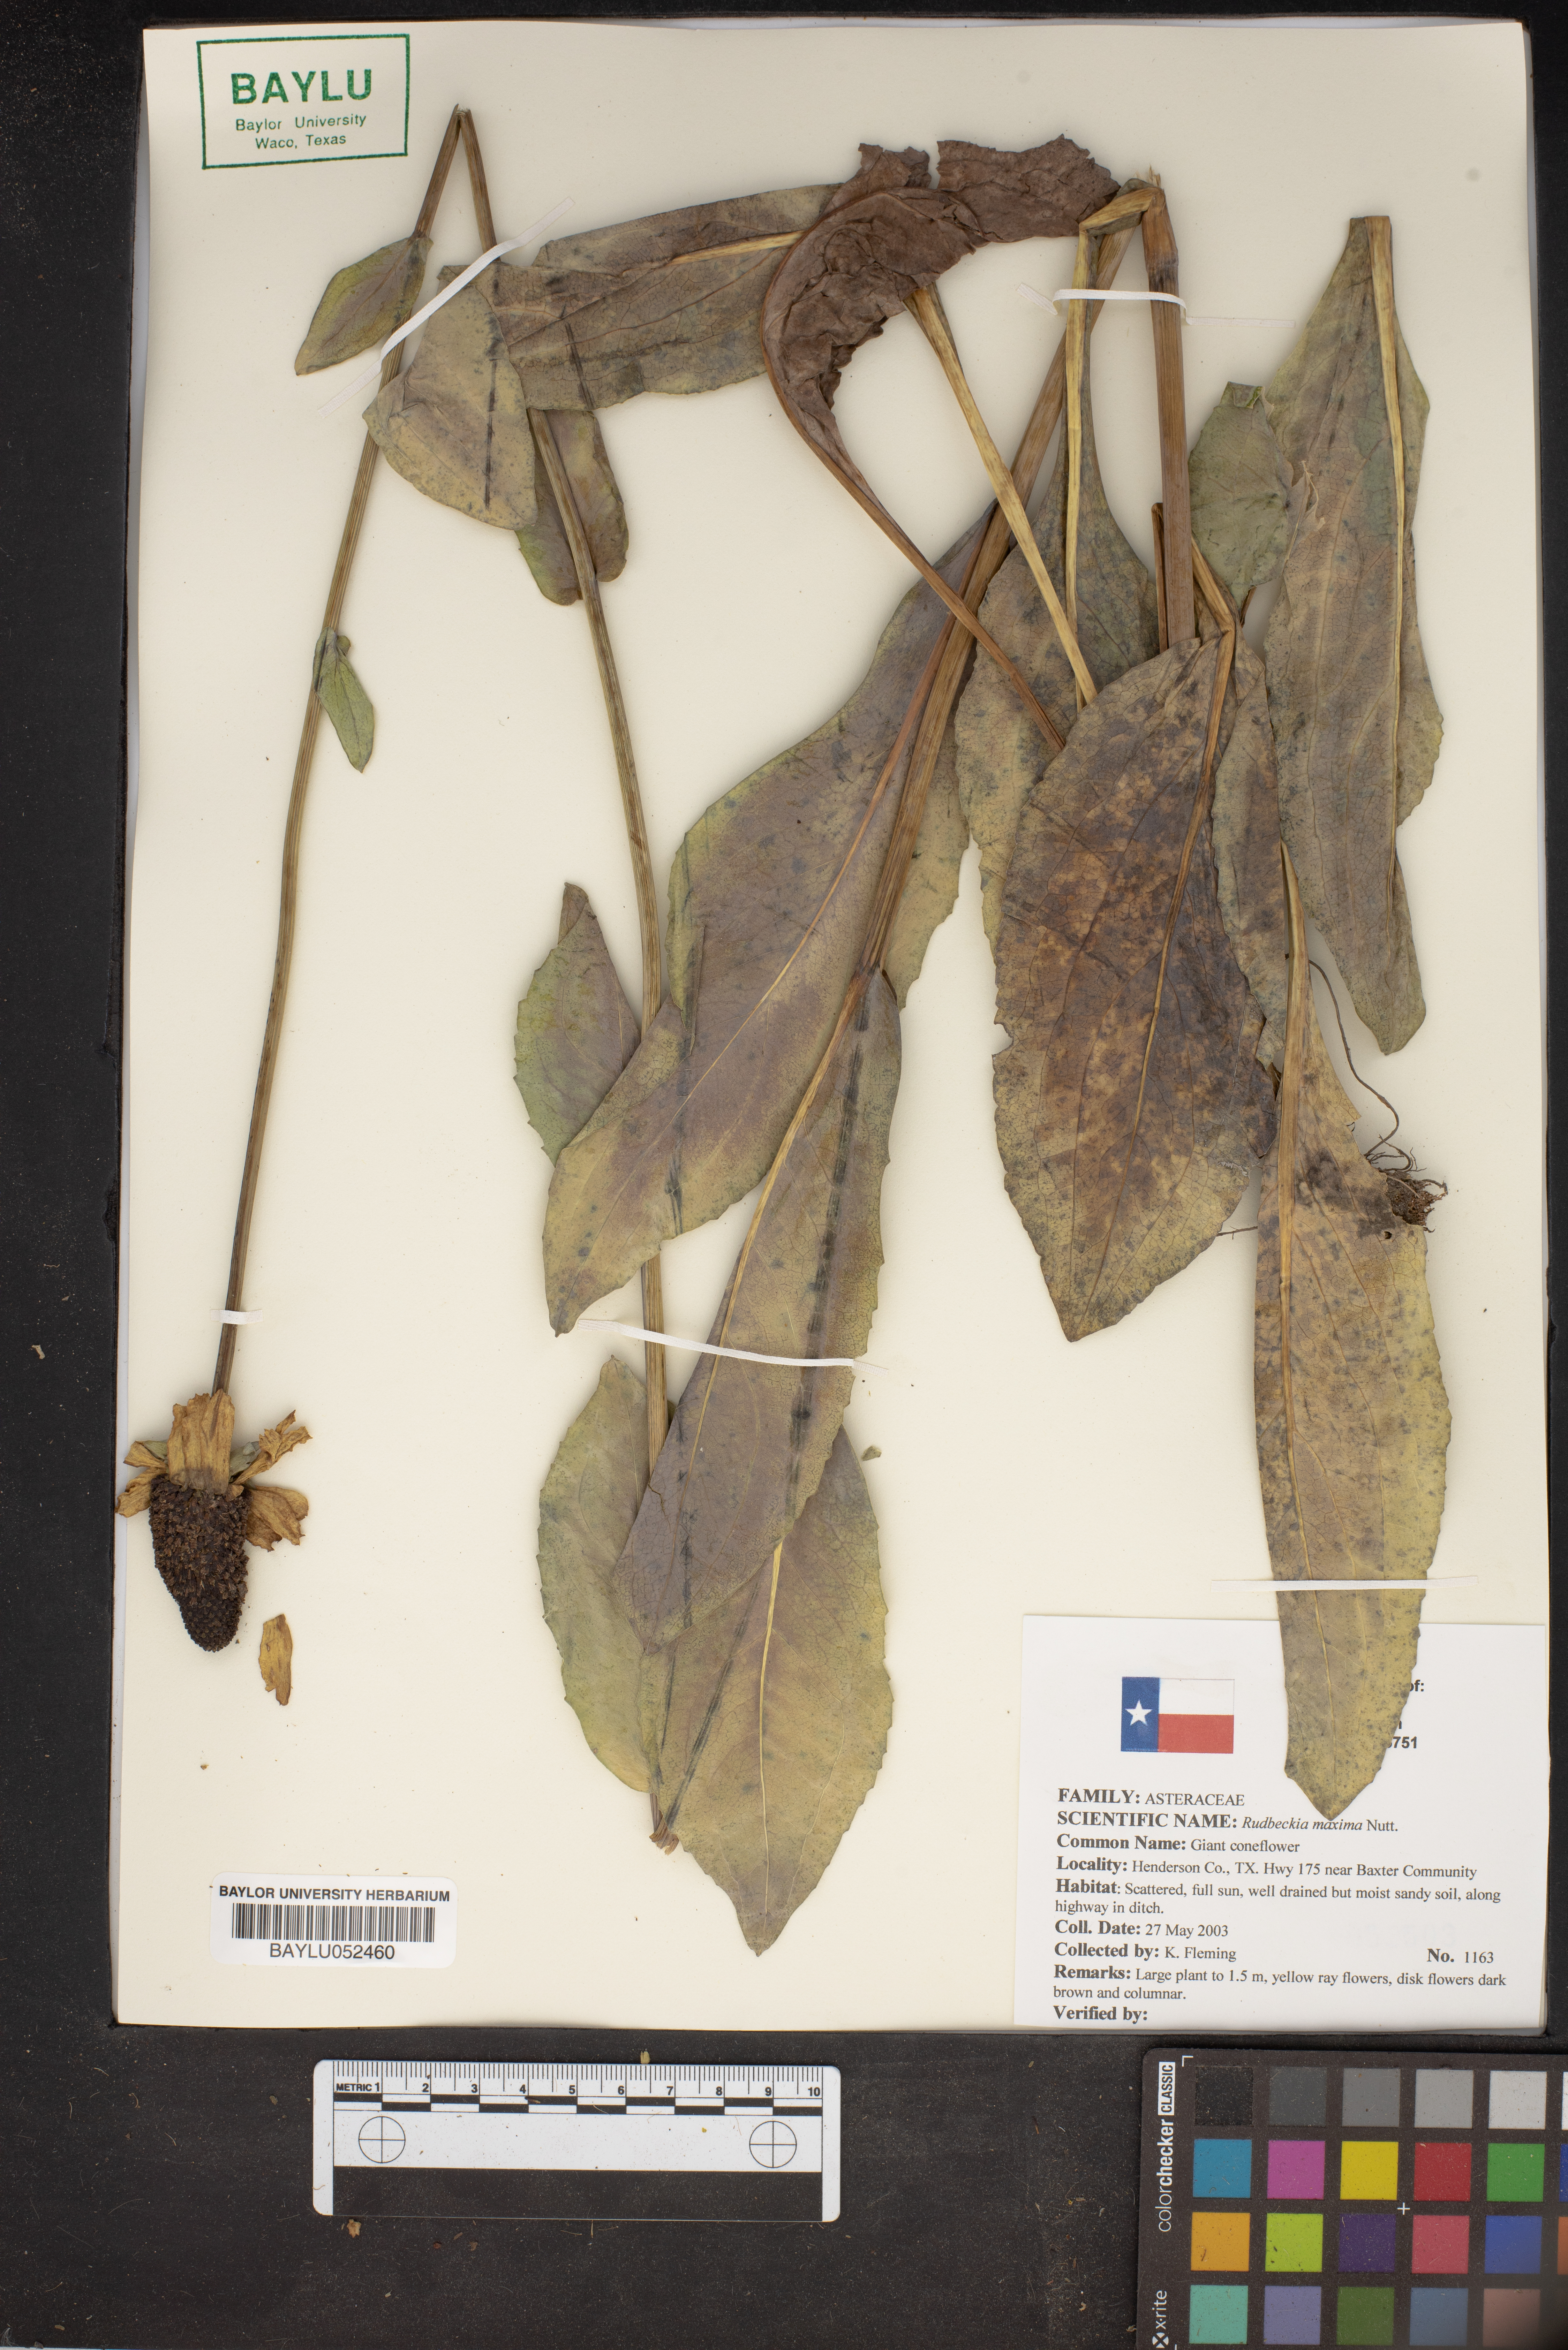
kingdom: Plantae
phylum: Tracheophyta
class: Magnoliopsida
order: Asterales
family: Asteraceae
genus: Rudbeckia
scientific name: Rudbeckia maxima
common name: Cabbage coneflower
